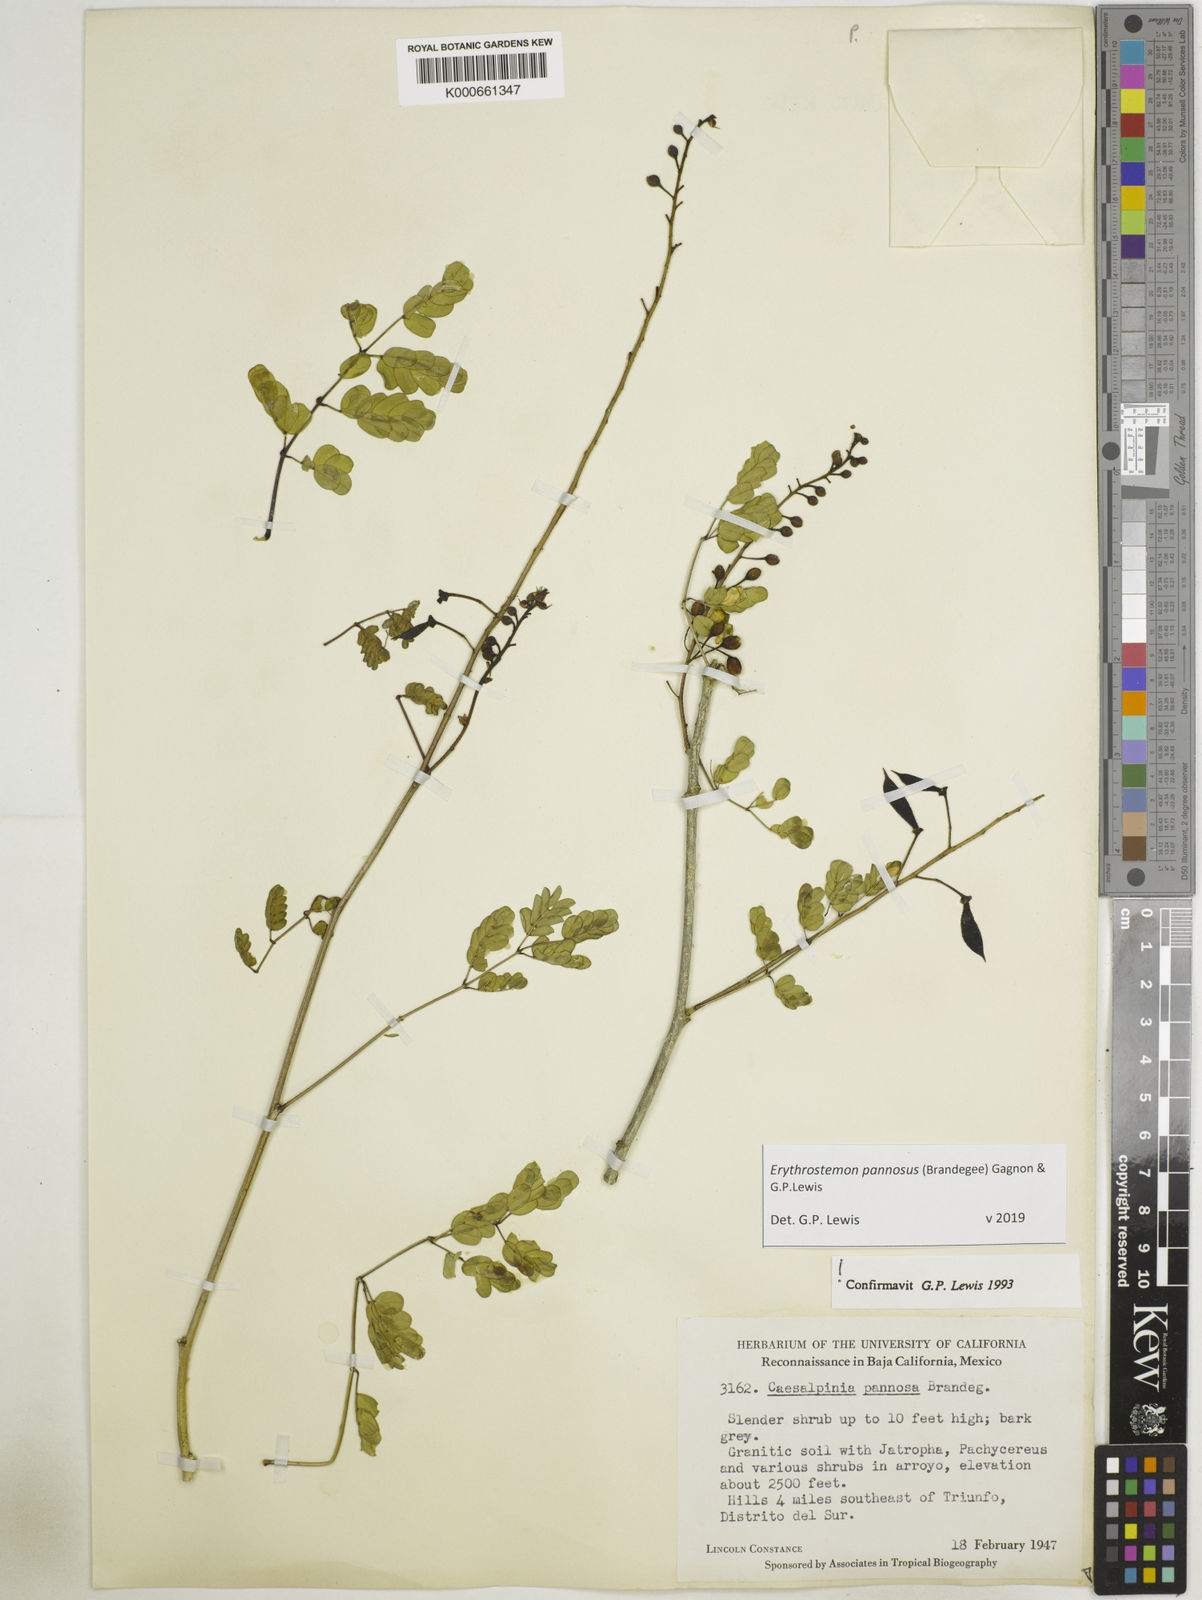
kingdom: Plantae
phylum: Tracheophyta
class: Magnoliopsida
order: Fabales
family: Fabaceae
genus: Erythrostemon
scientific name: Erythrostemon pannosus
